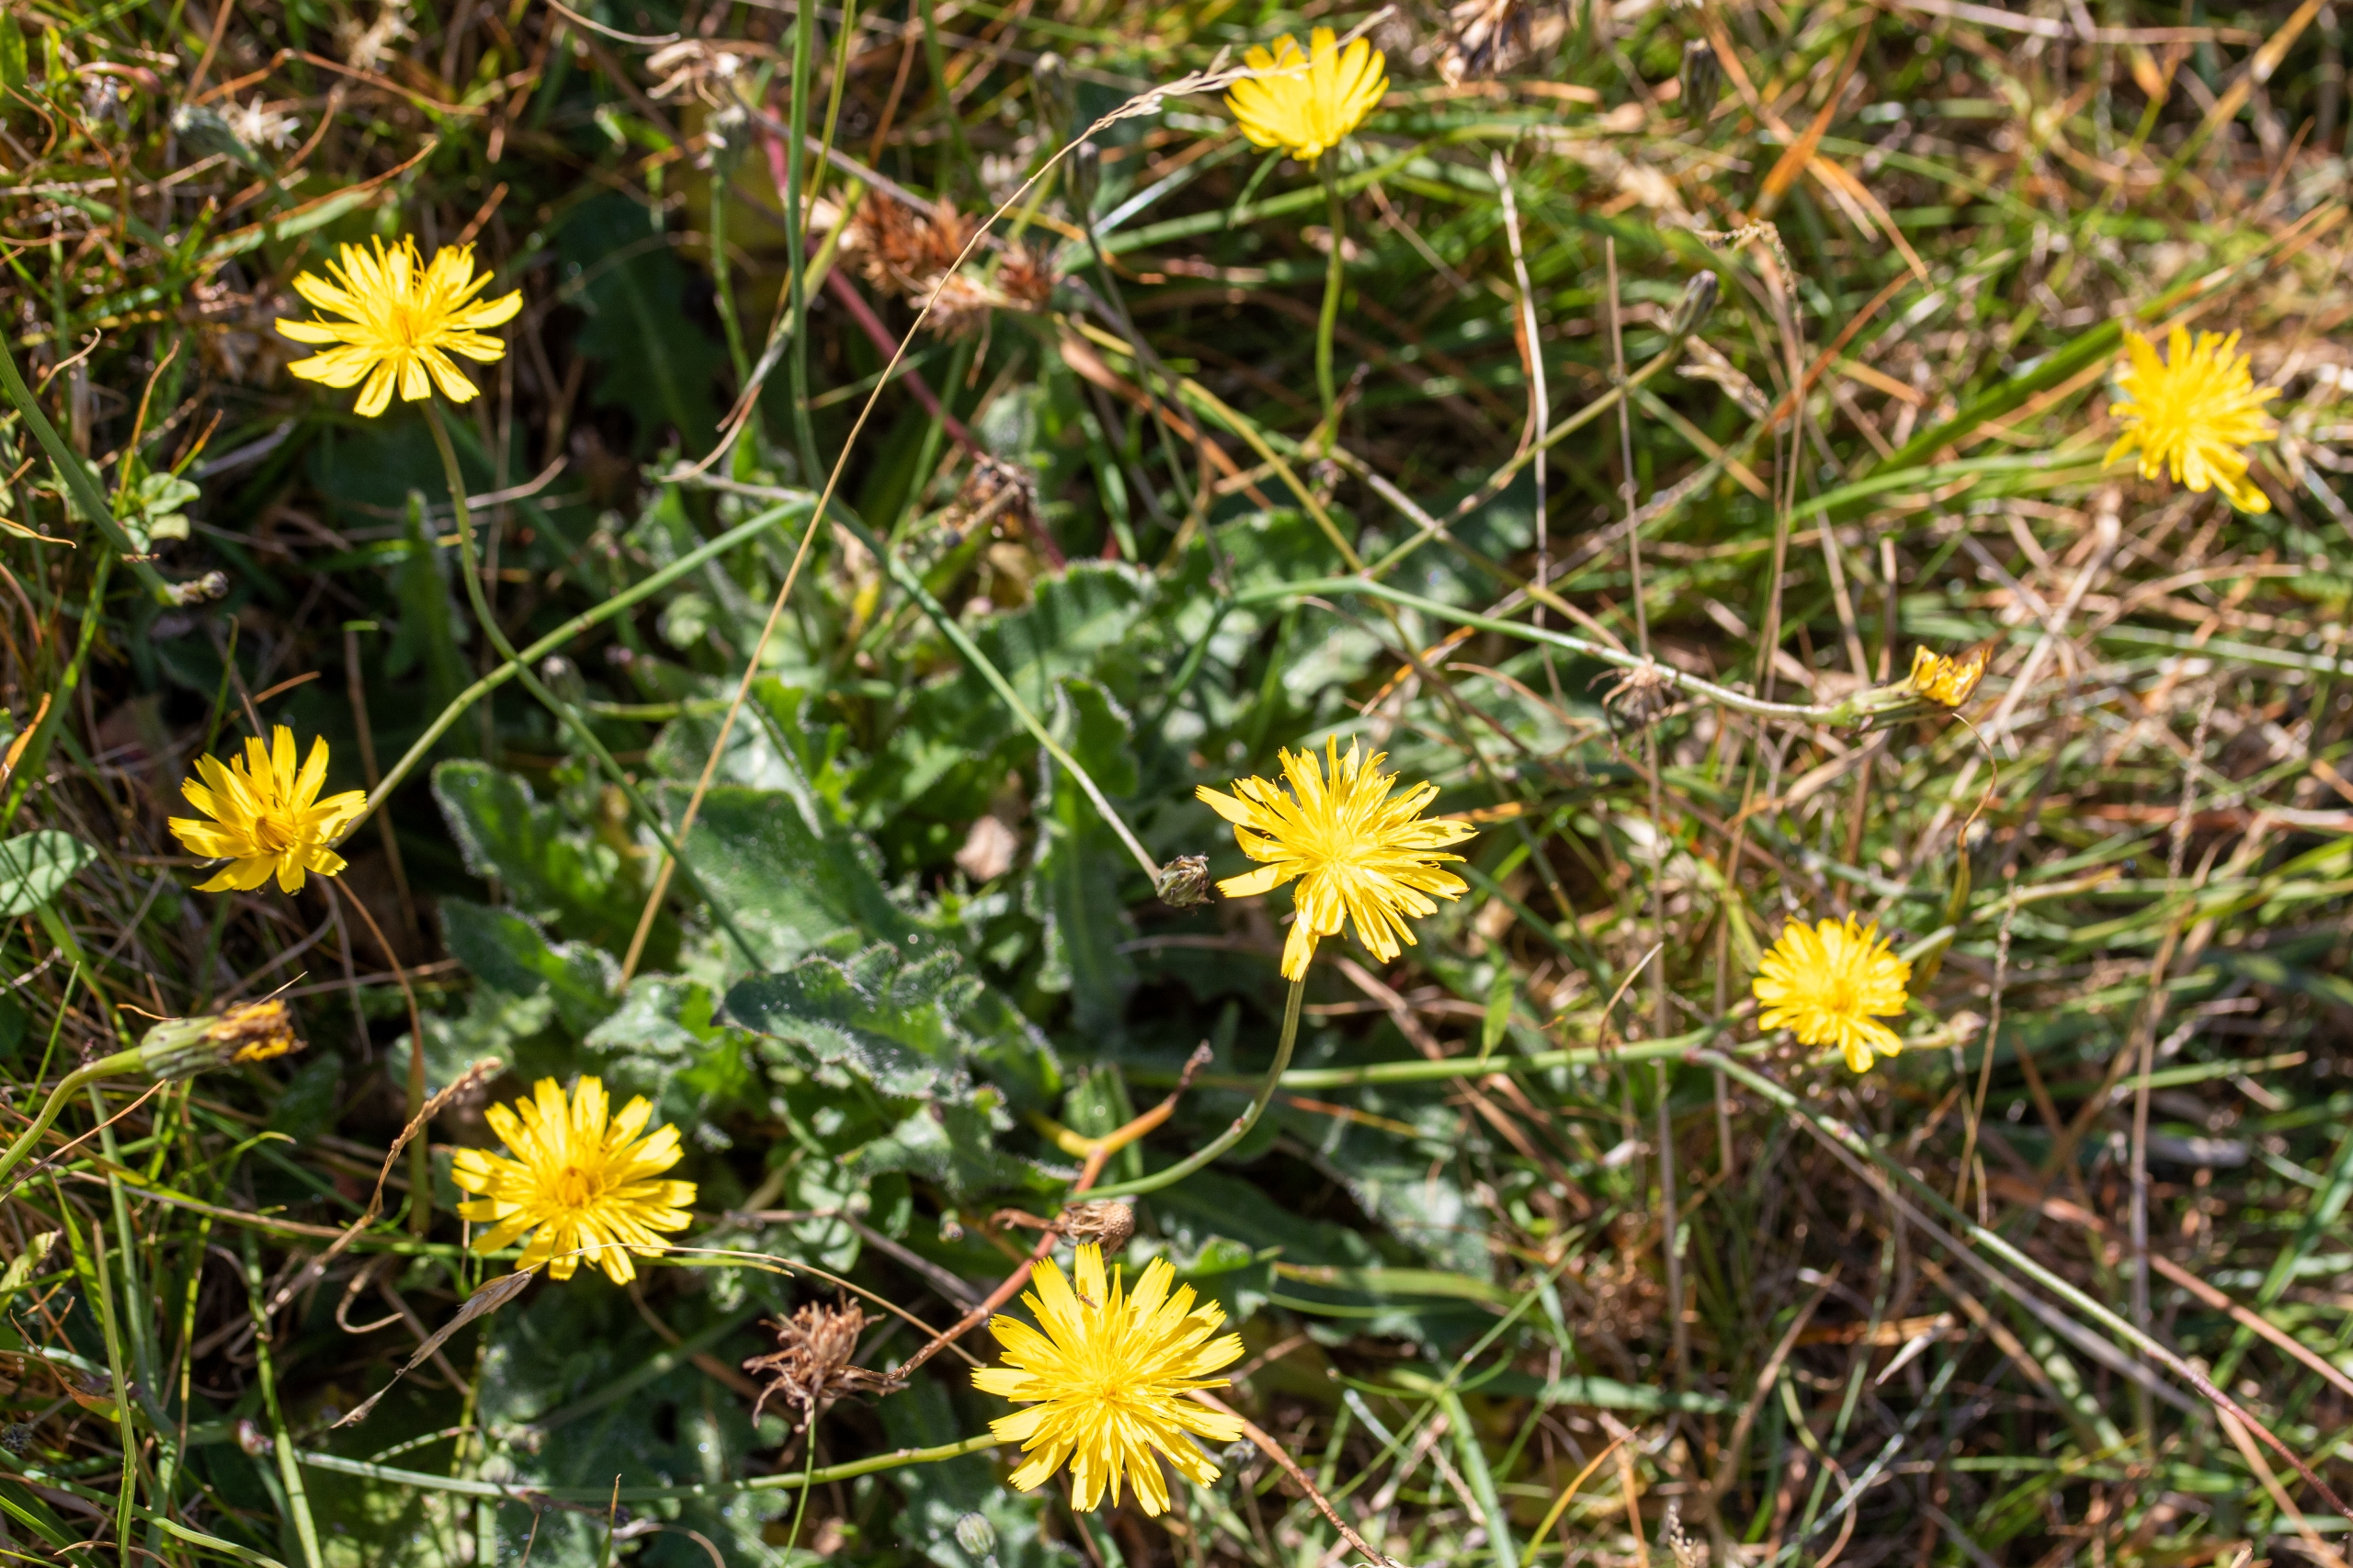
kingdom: Plantae
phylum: Tracheophyta
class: Magnoliopsida
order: Asterales
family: Asteraceae
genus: Hypochaeris
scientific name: Hypochaeris radicata
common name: Almindelig kongepen
